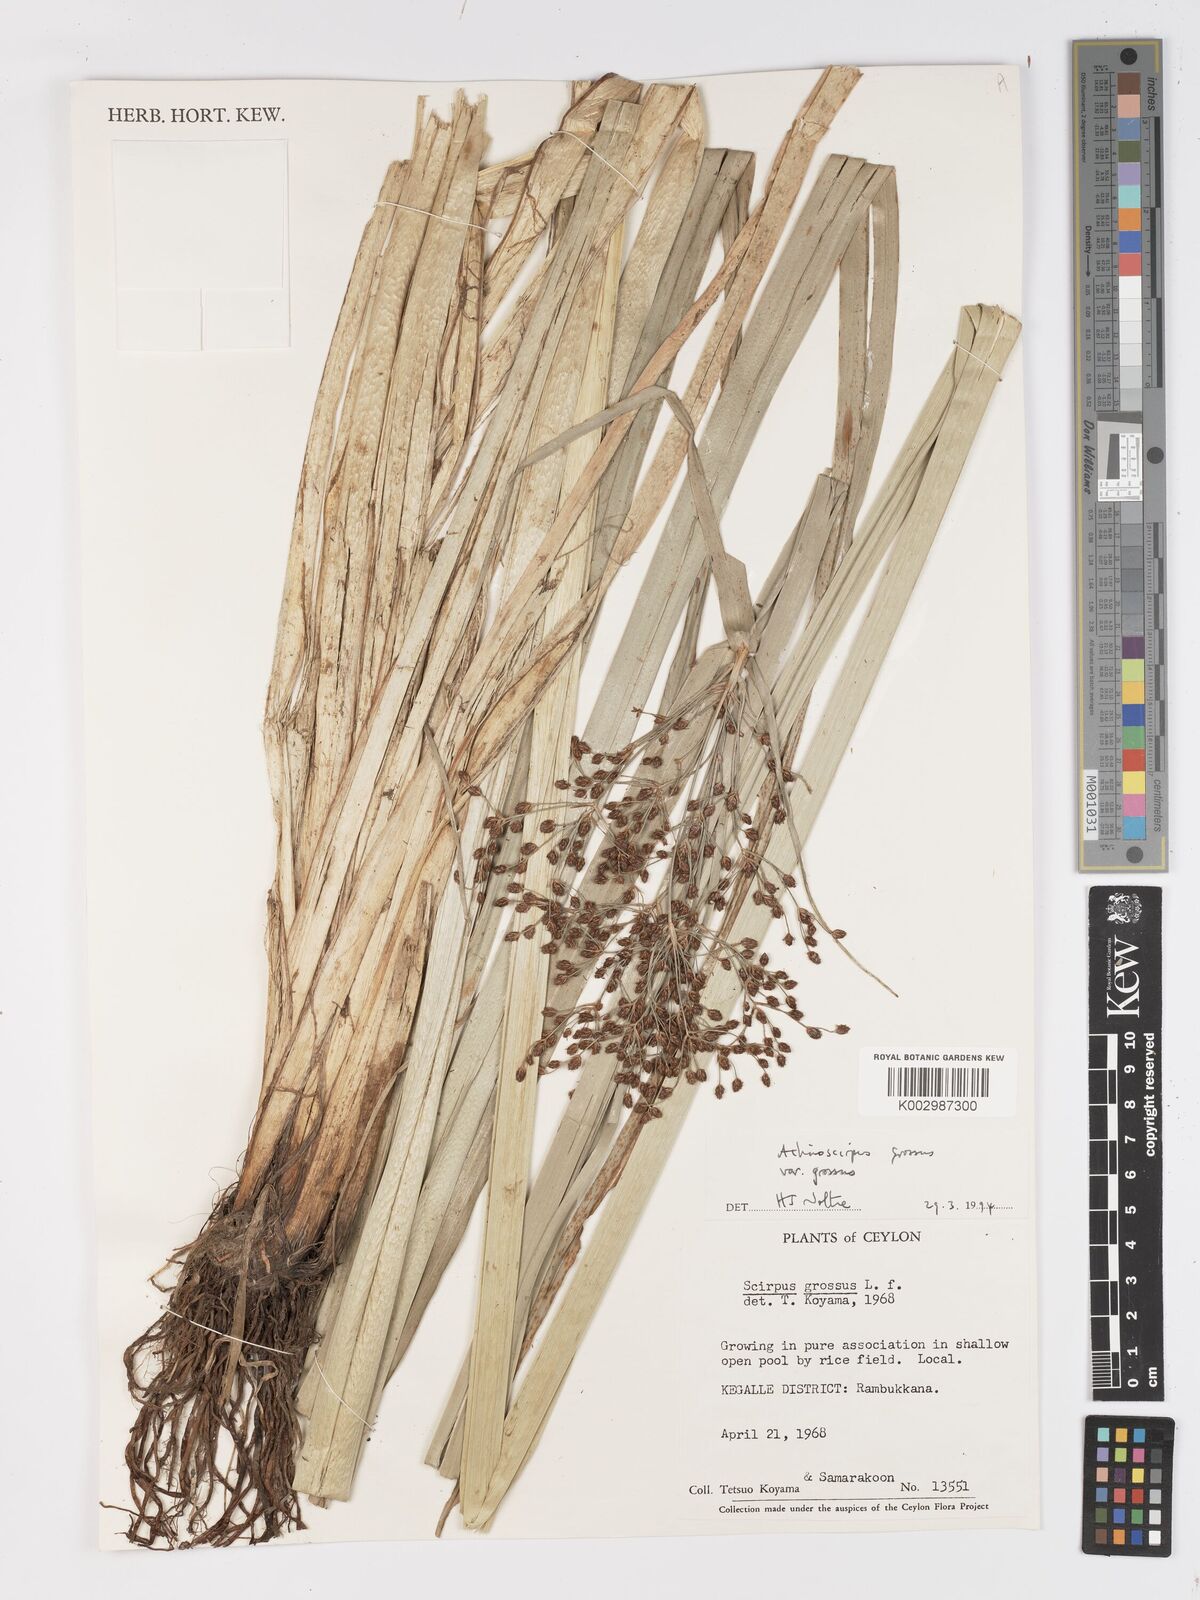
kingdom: Plantae
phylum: Tracheophyta
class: Liliopsida
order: Poales
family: Cyperaceae
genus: Actinoscirpus
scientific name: Actinoscirpus grossus
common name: Giant bur rush
